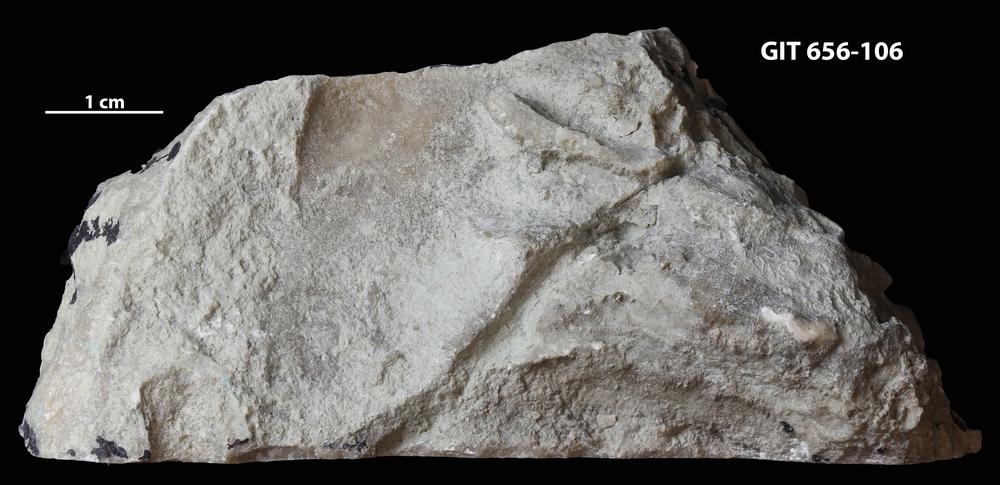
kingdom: Protozoa
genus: Pachystroma
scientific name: Pachystroma
